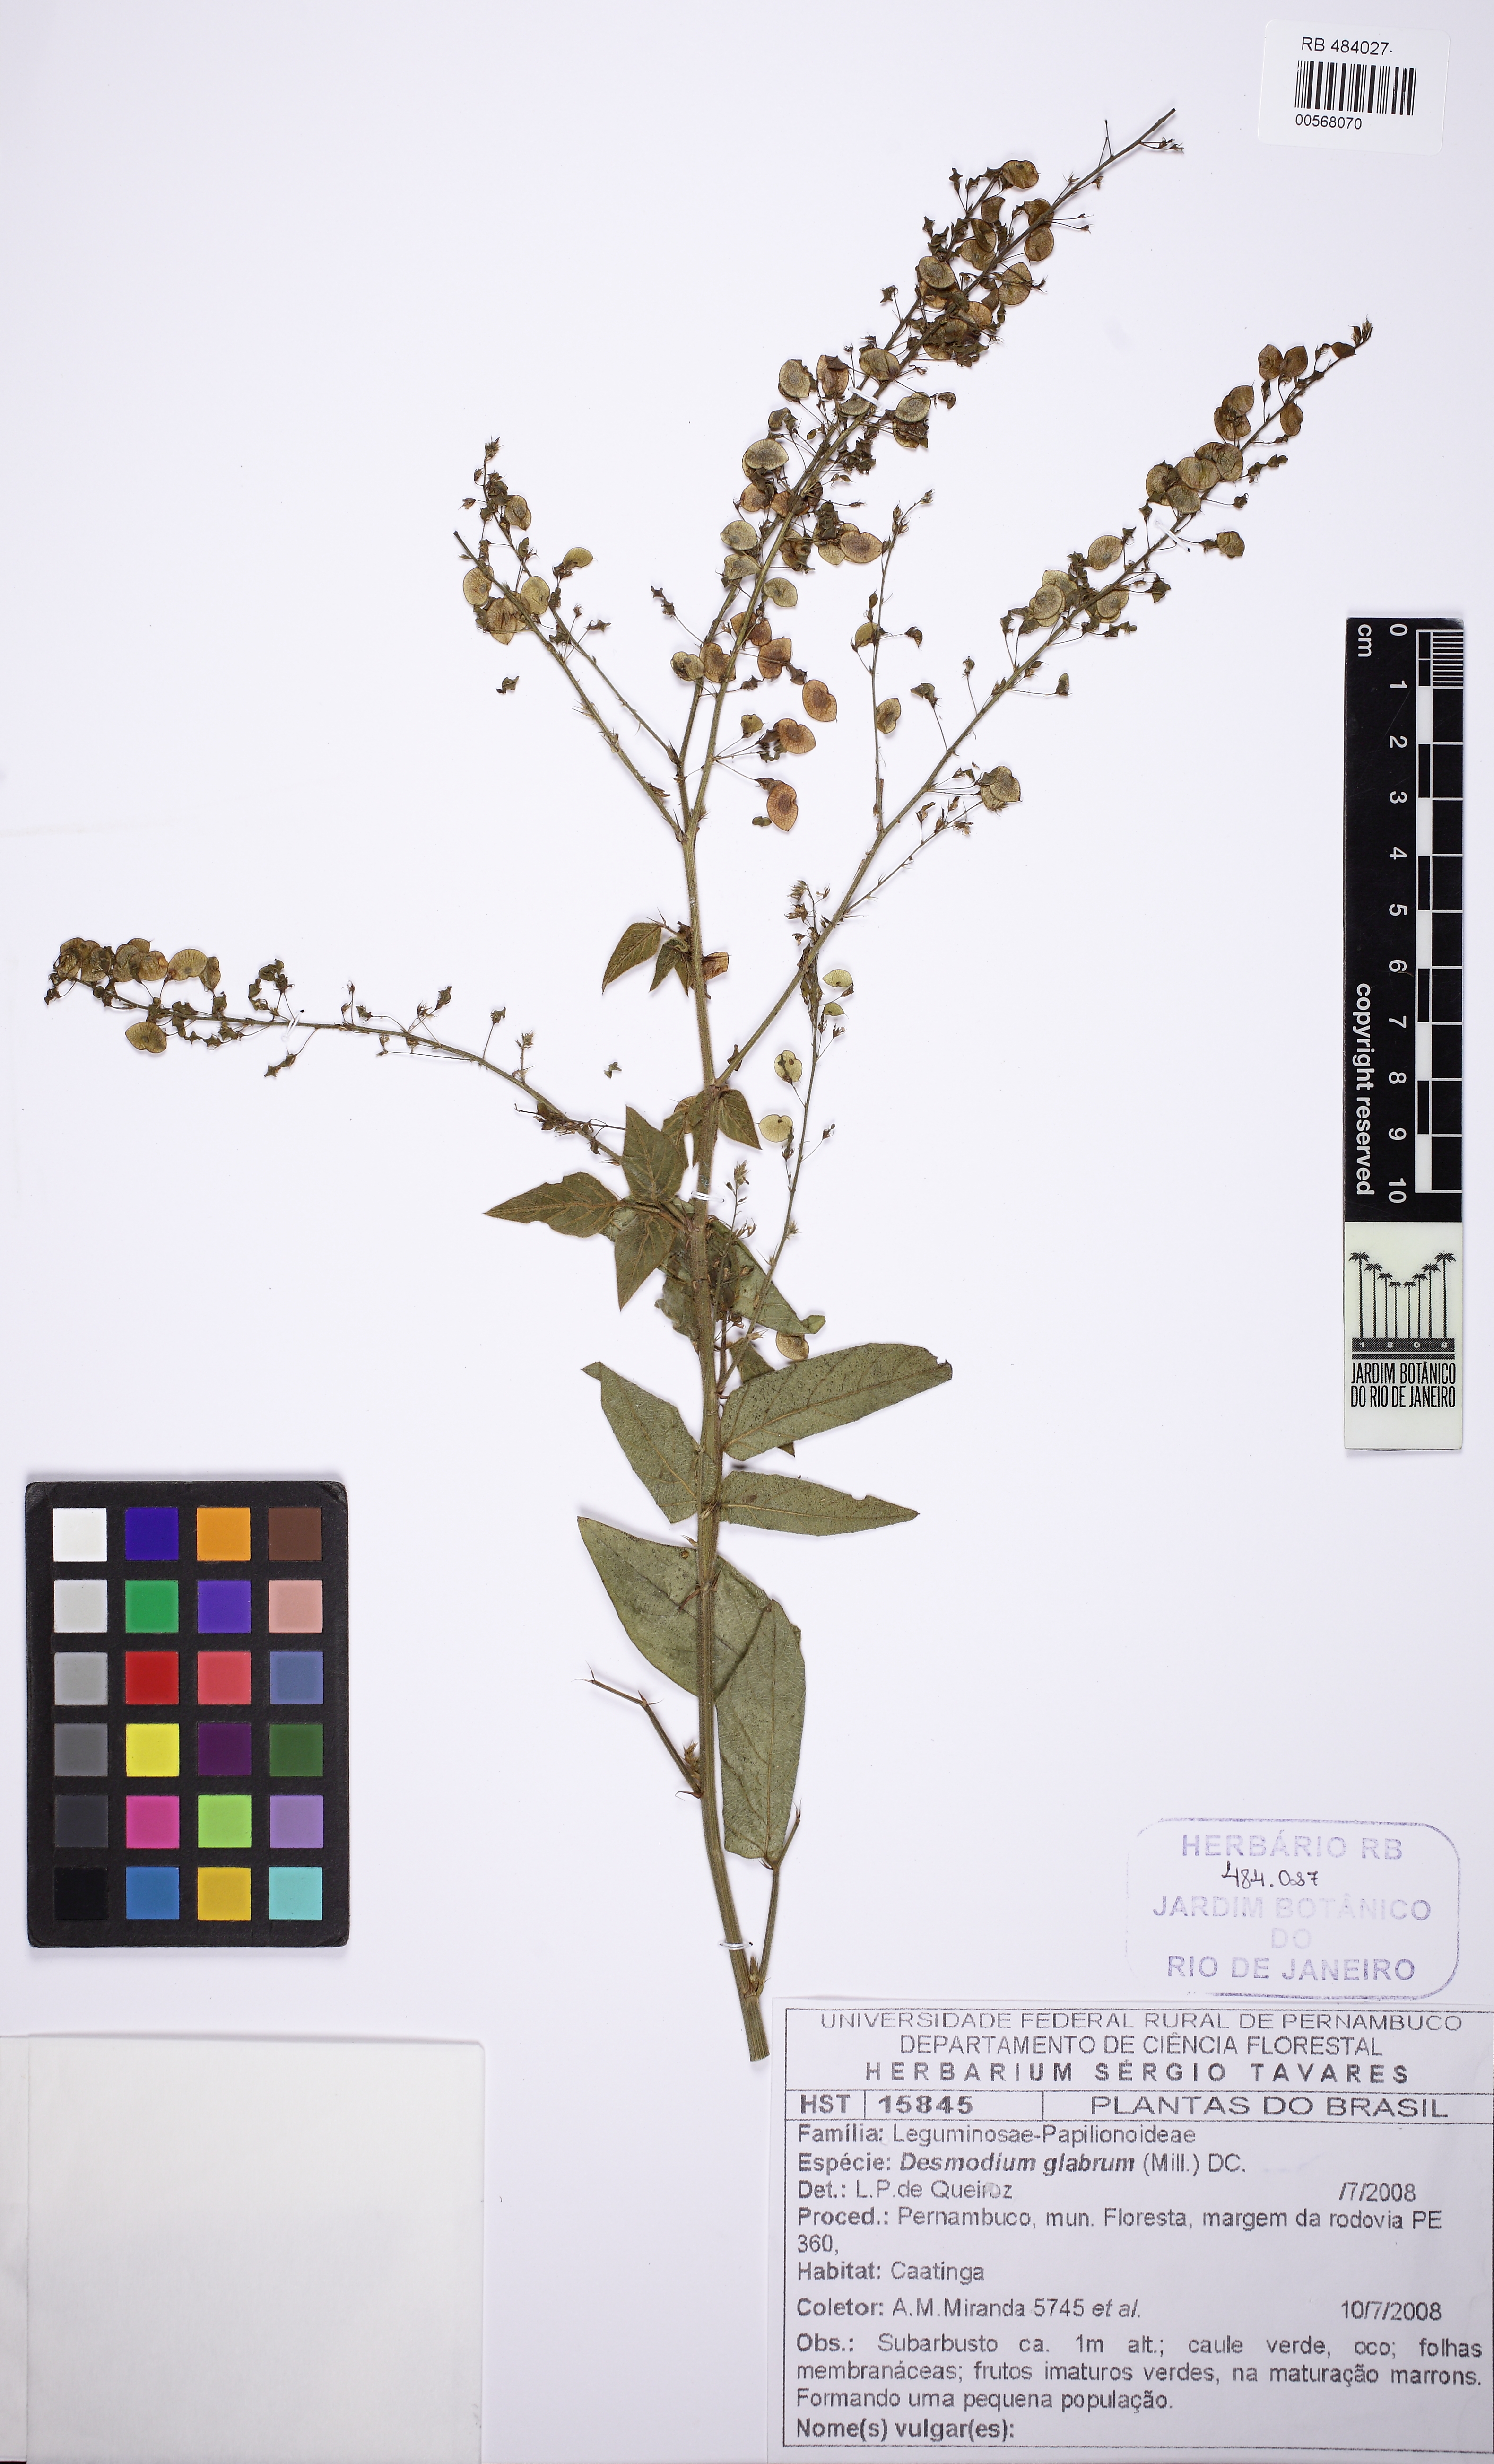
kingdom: Plantae
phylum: Tracheophyta
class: Magnoliopsida
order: Fabales
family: Fabaceae
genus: Desmodium
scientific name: Desmodium glabrum
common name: Zarzabacoa dulce
